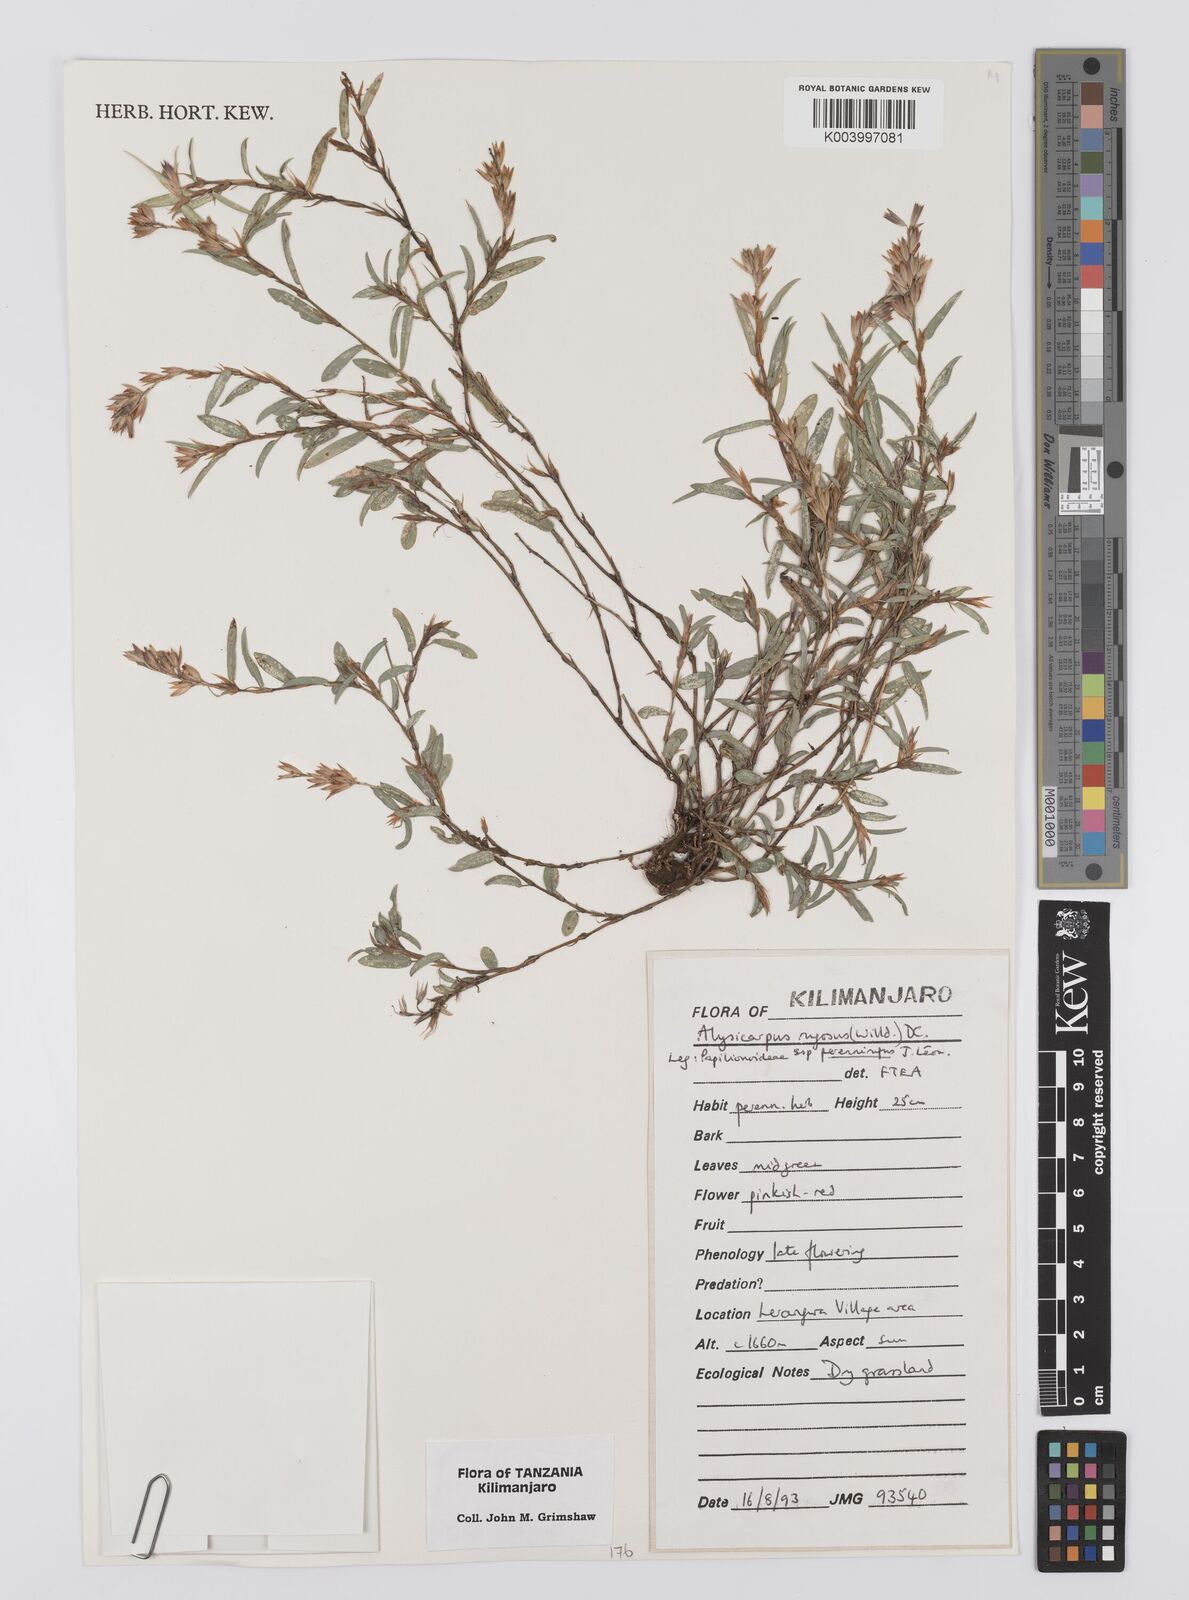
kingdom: Plantae
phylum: Tracheophyta
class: Magnoliopsida
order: Fabales
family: Fabaceae
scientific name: Fabaceae
